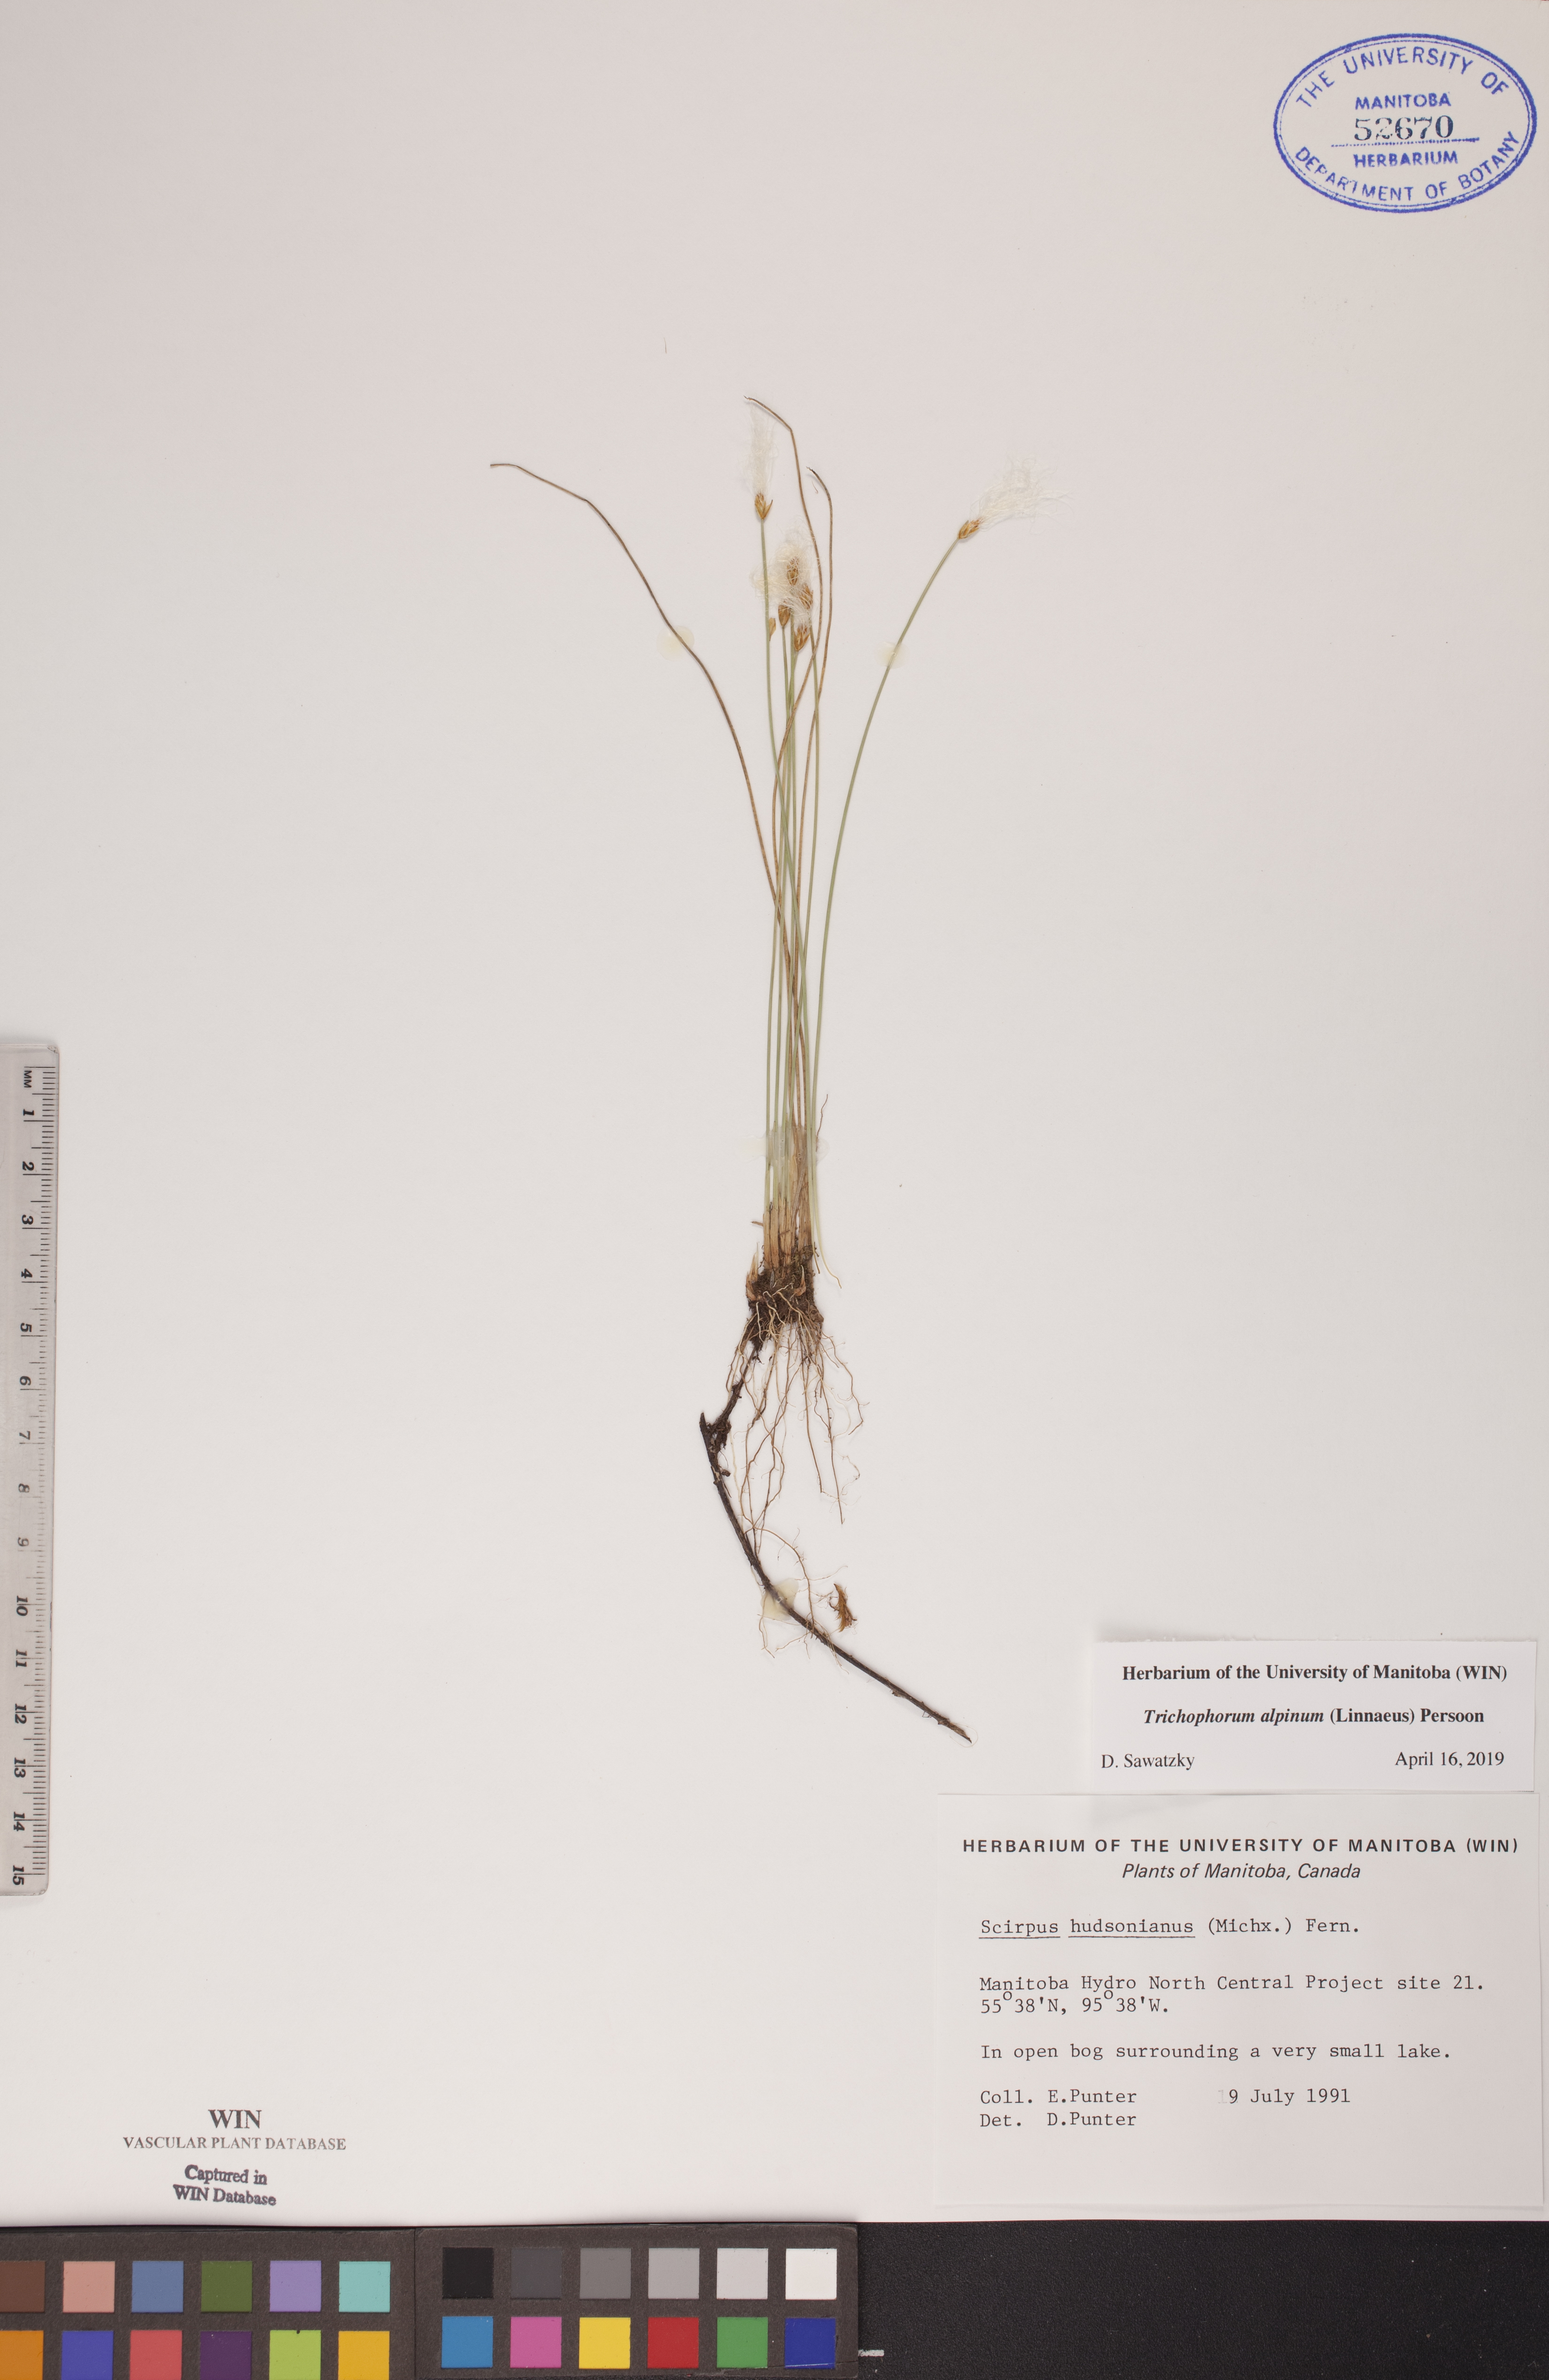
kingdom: Plantae
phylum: Tracheophyta
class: Liliopsida
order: Poales
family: Cyperaceae
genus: Trichophorum
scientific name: Trichophorum alpinum
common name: Alpine bulrush
